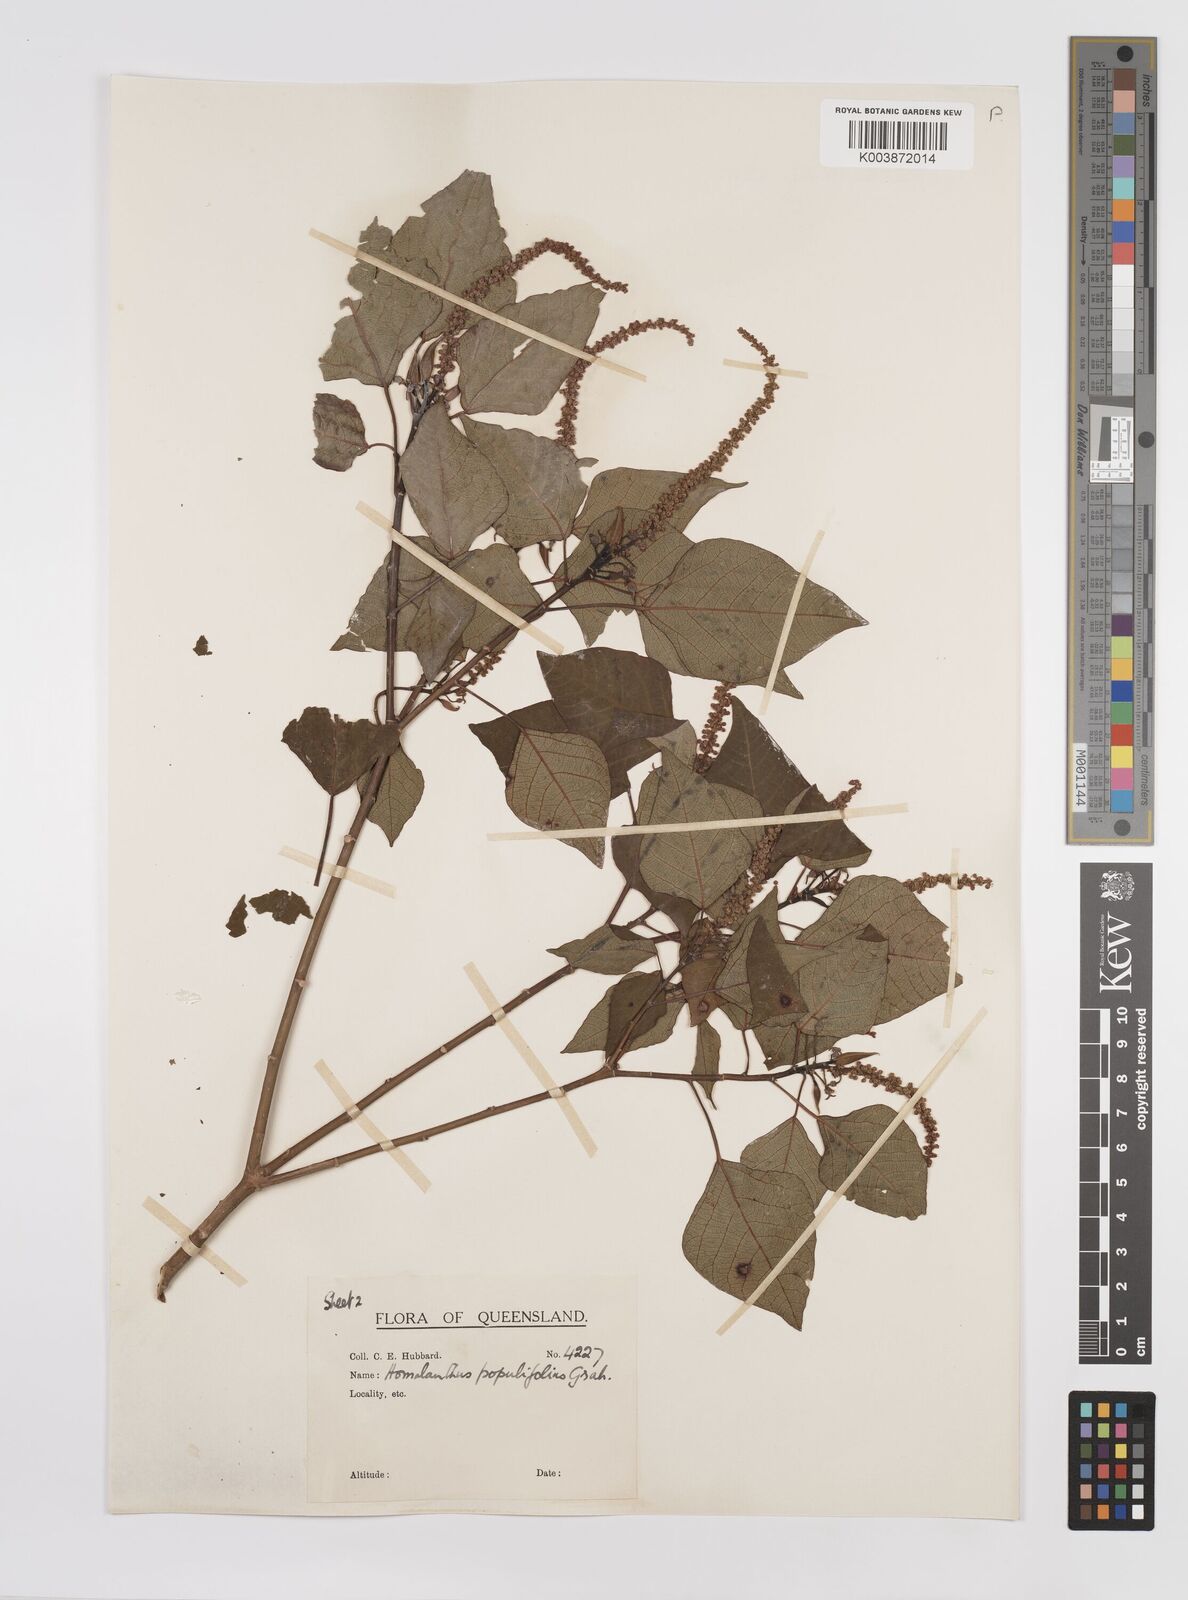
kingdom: Plantae
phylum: Tracheophyta
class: Magnoliopsida
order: Malpighiales
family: Euphorbiaceae
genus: Homalanthus
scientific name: Homalanthus populifolius
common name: Queensland poplar
